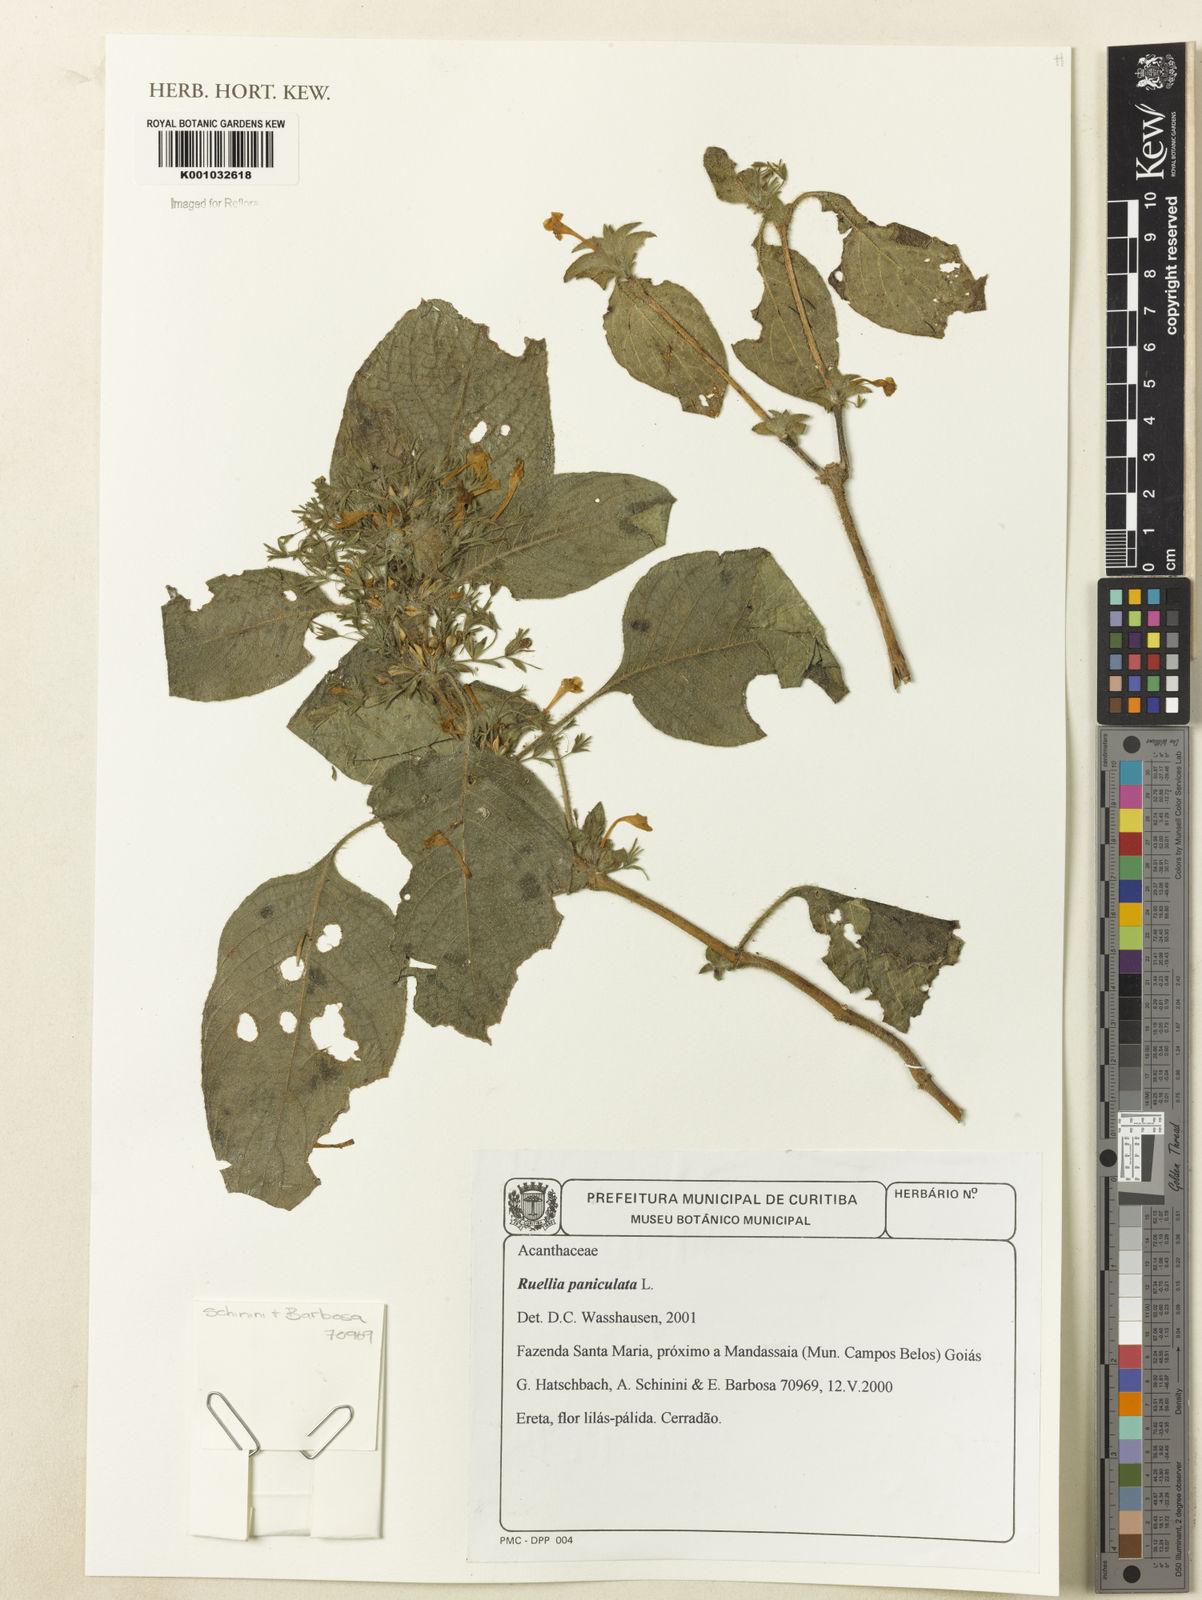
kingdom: Plantae
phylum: Tracheophyta
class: Magnoliopsida
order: Lamiales
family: Acanthaceae
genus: Ruellia
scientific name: Ruellia paniculata
